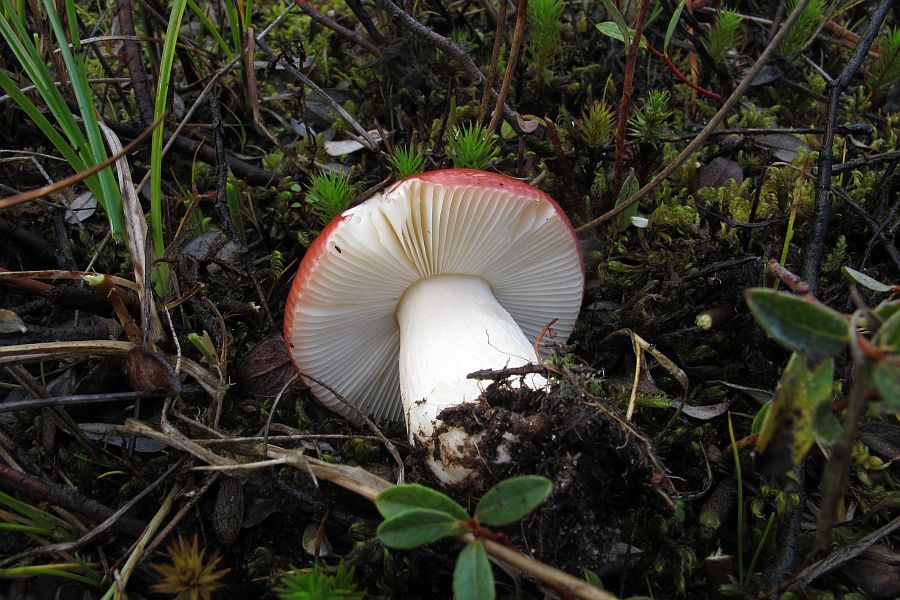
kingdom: Fungi
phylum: Basidiomycota
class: Agaricomycetes
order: Russulales
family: Russulaceae
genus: Russula
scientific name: Russula subrubens
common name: pile-skørhat
